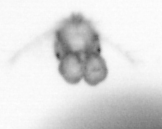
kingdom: Animalia
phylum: Arthropoda
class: Copepoda
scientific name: Copepoda
